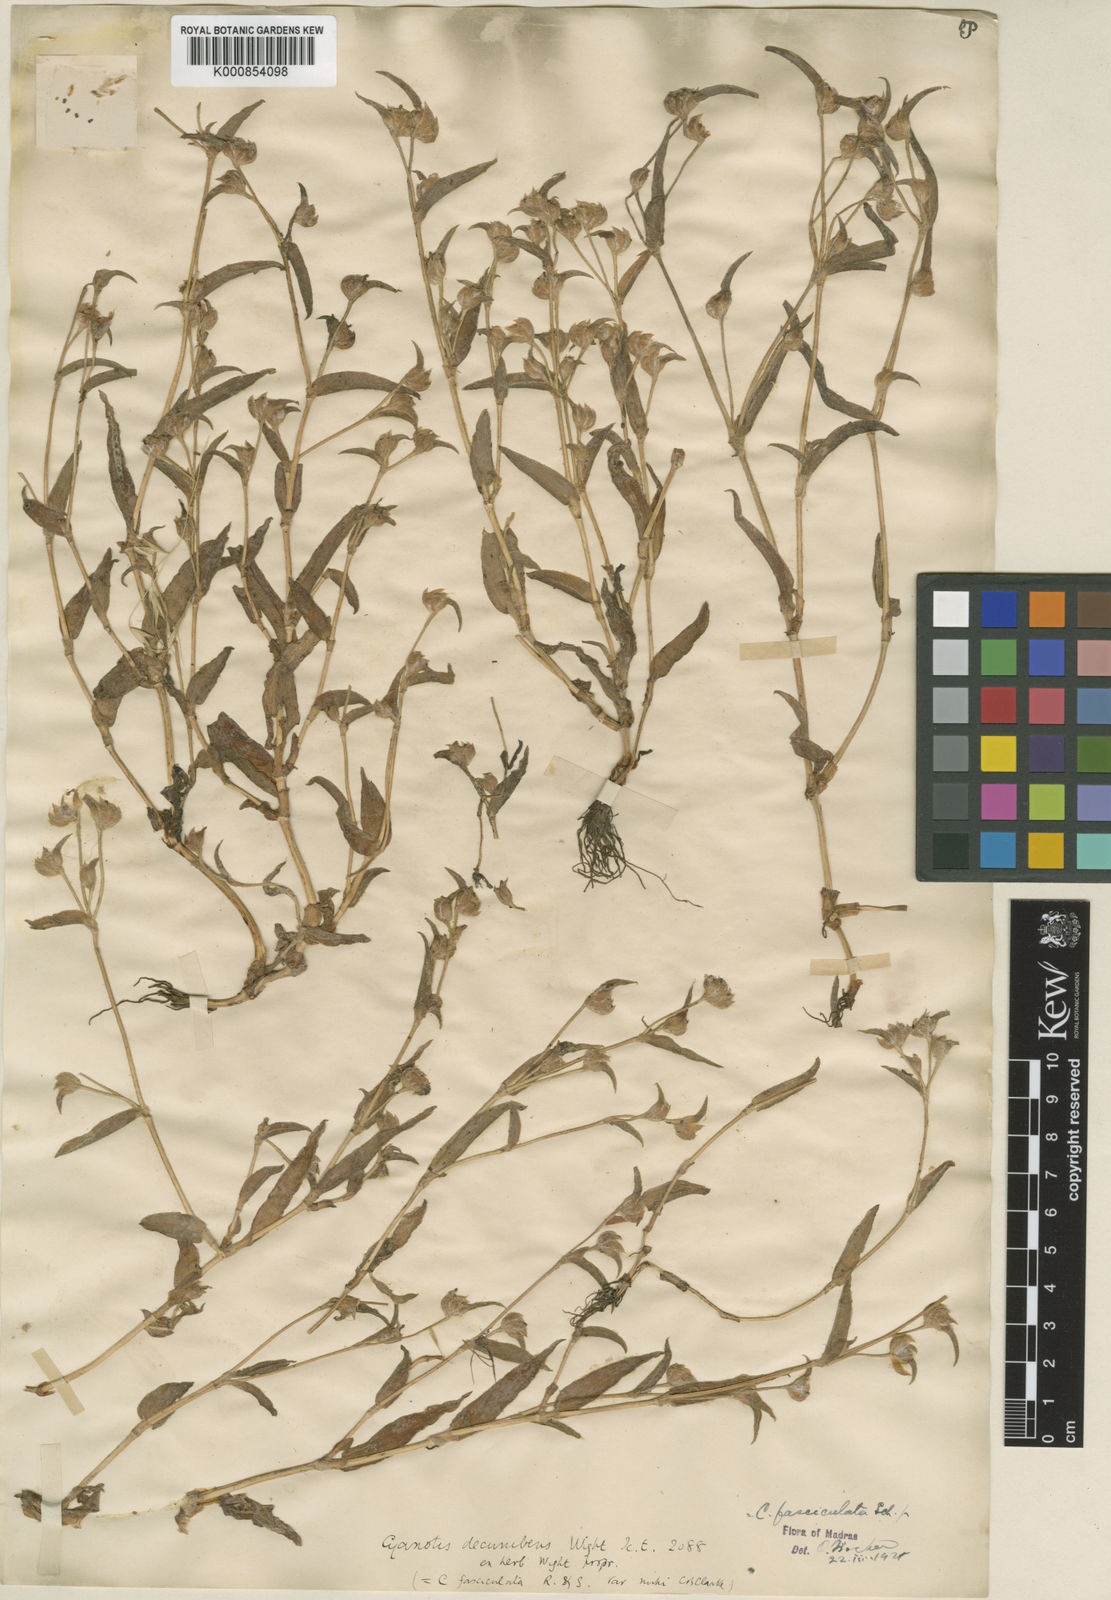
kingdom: Plantae
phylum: Tracheophyta
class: Liliopsida
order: Commelinales
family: Commelinaceae
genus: Cyanotis
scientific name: Cyanotis fasciculata
